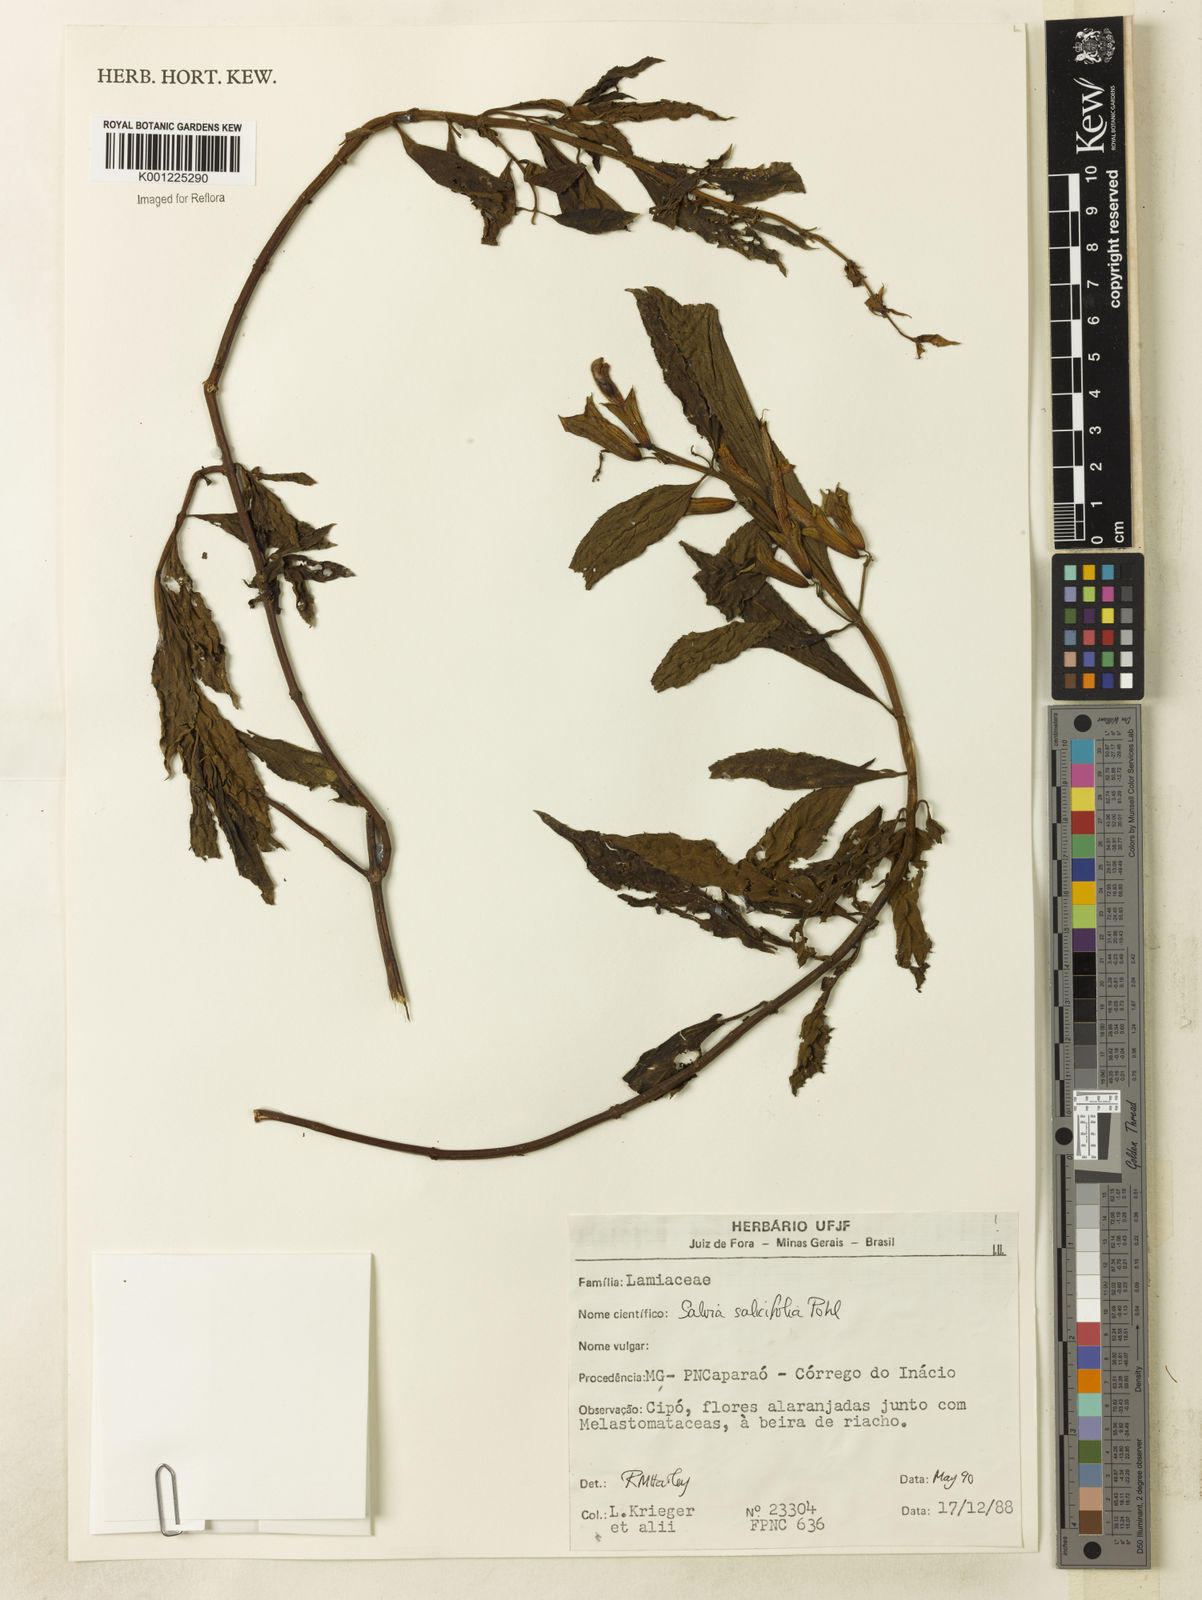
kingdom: Plantae
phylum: Tracheophyta
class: Magnoliopsida
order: Lamiales
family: Lamiaceae
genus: Salvia
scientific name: Salvia salicifolia
